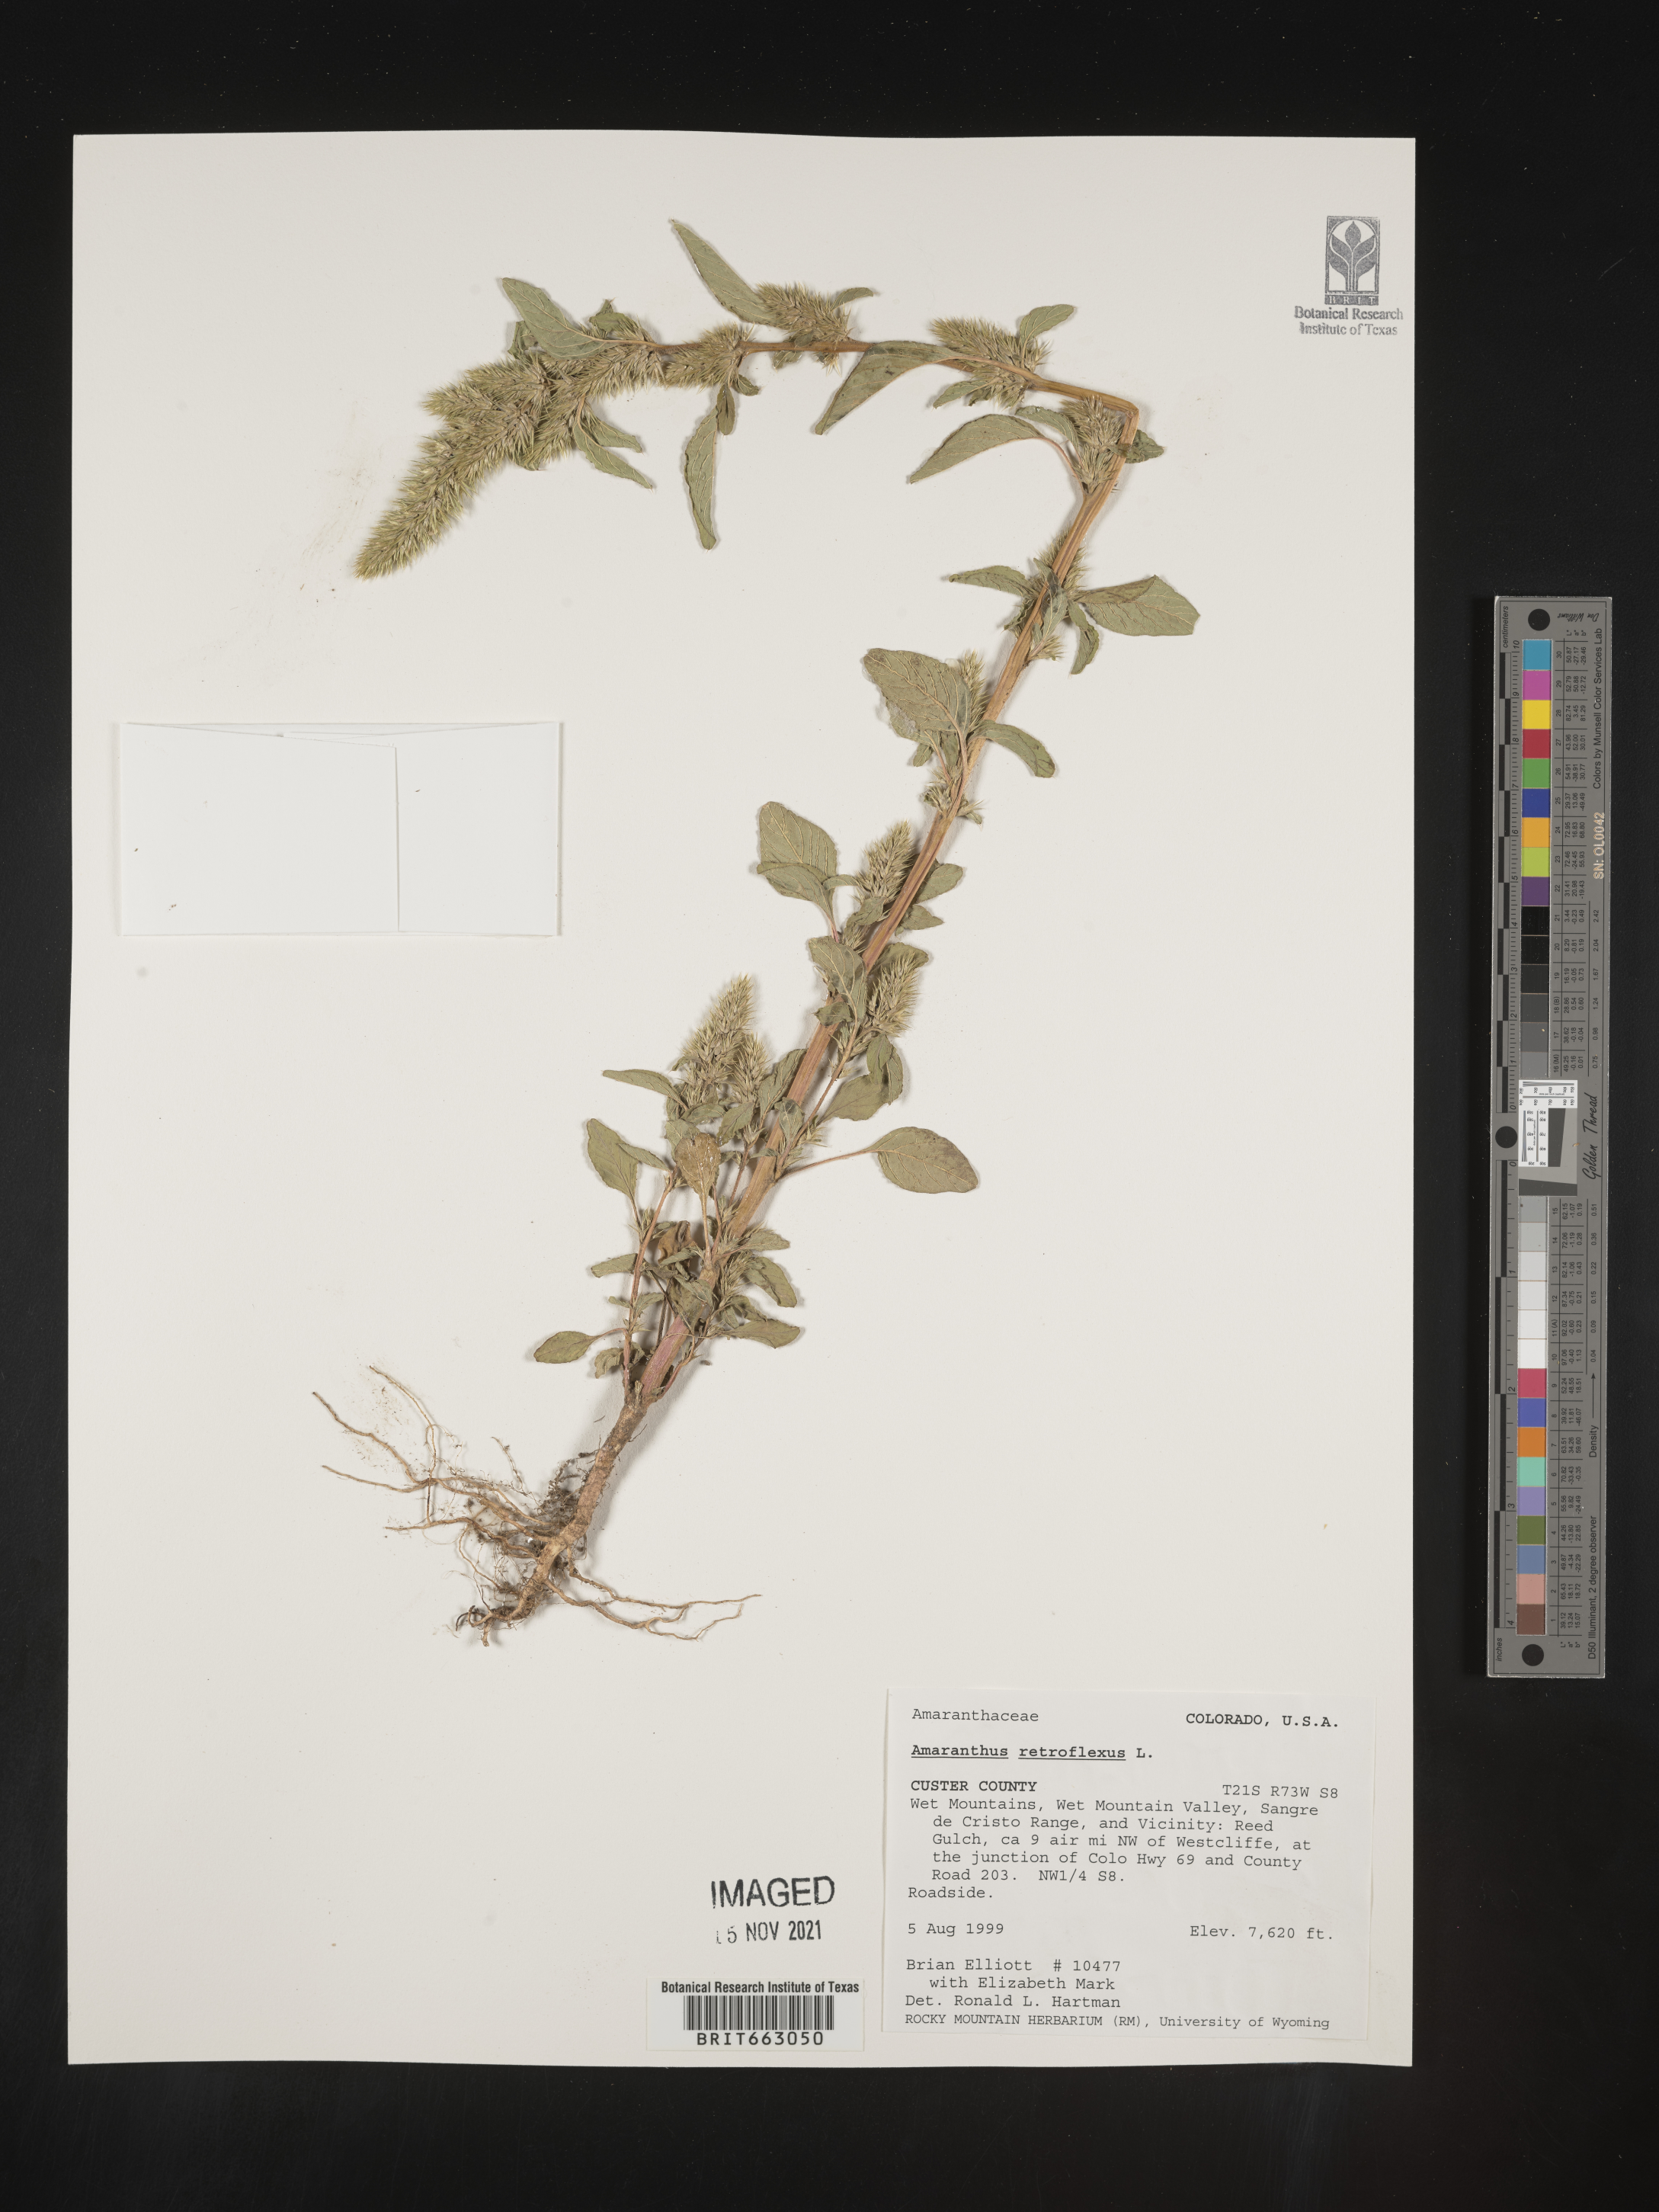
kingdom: Plantae
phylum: Tracheophyta
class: Magnoliopsida
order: Caryophyllales
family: Amaranthaceae
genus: Amaranthus
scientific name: Amaranthus retroflexus
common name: Redroot amaranth
